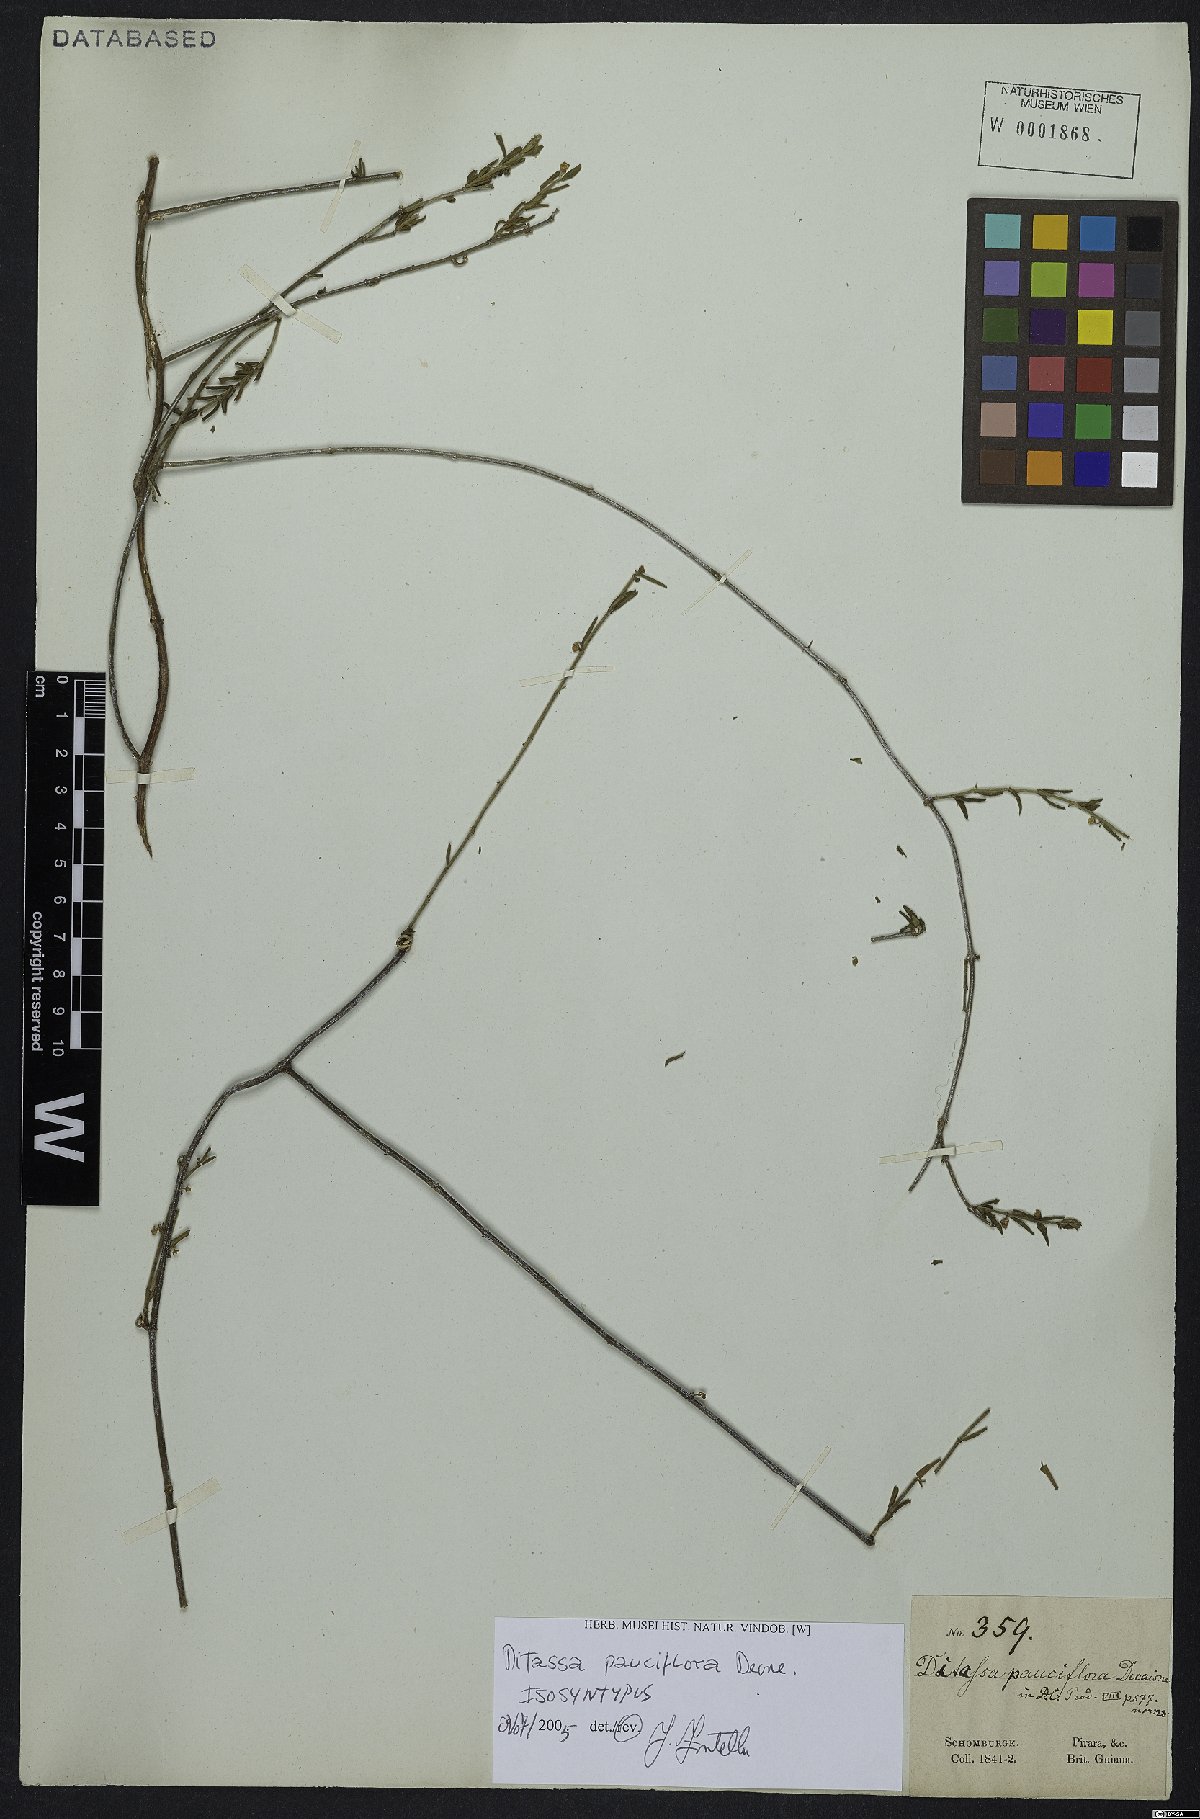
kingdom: Plantae
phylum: Tracheophyta
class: Magnoliopsida
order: Gentianales
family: Apocynaceae
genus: Ditassa
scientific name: Ditassa pauciflora
